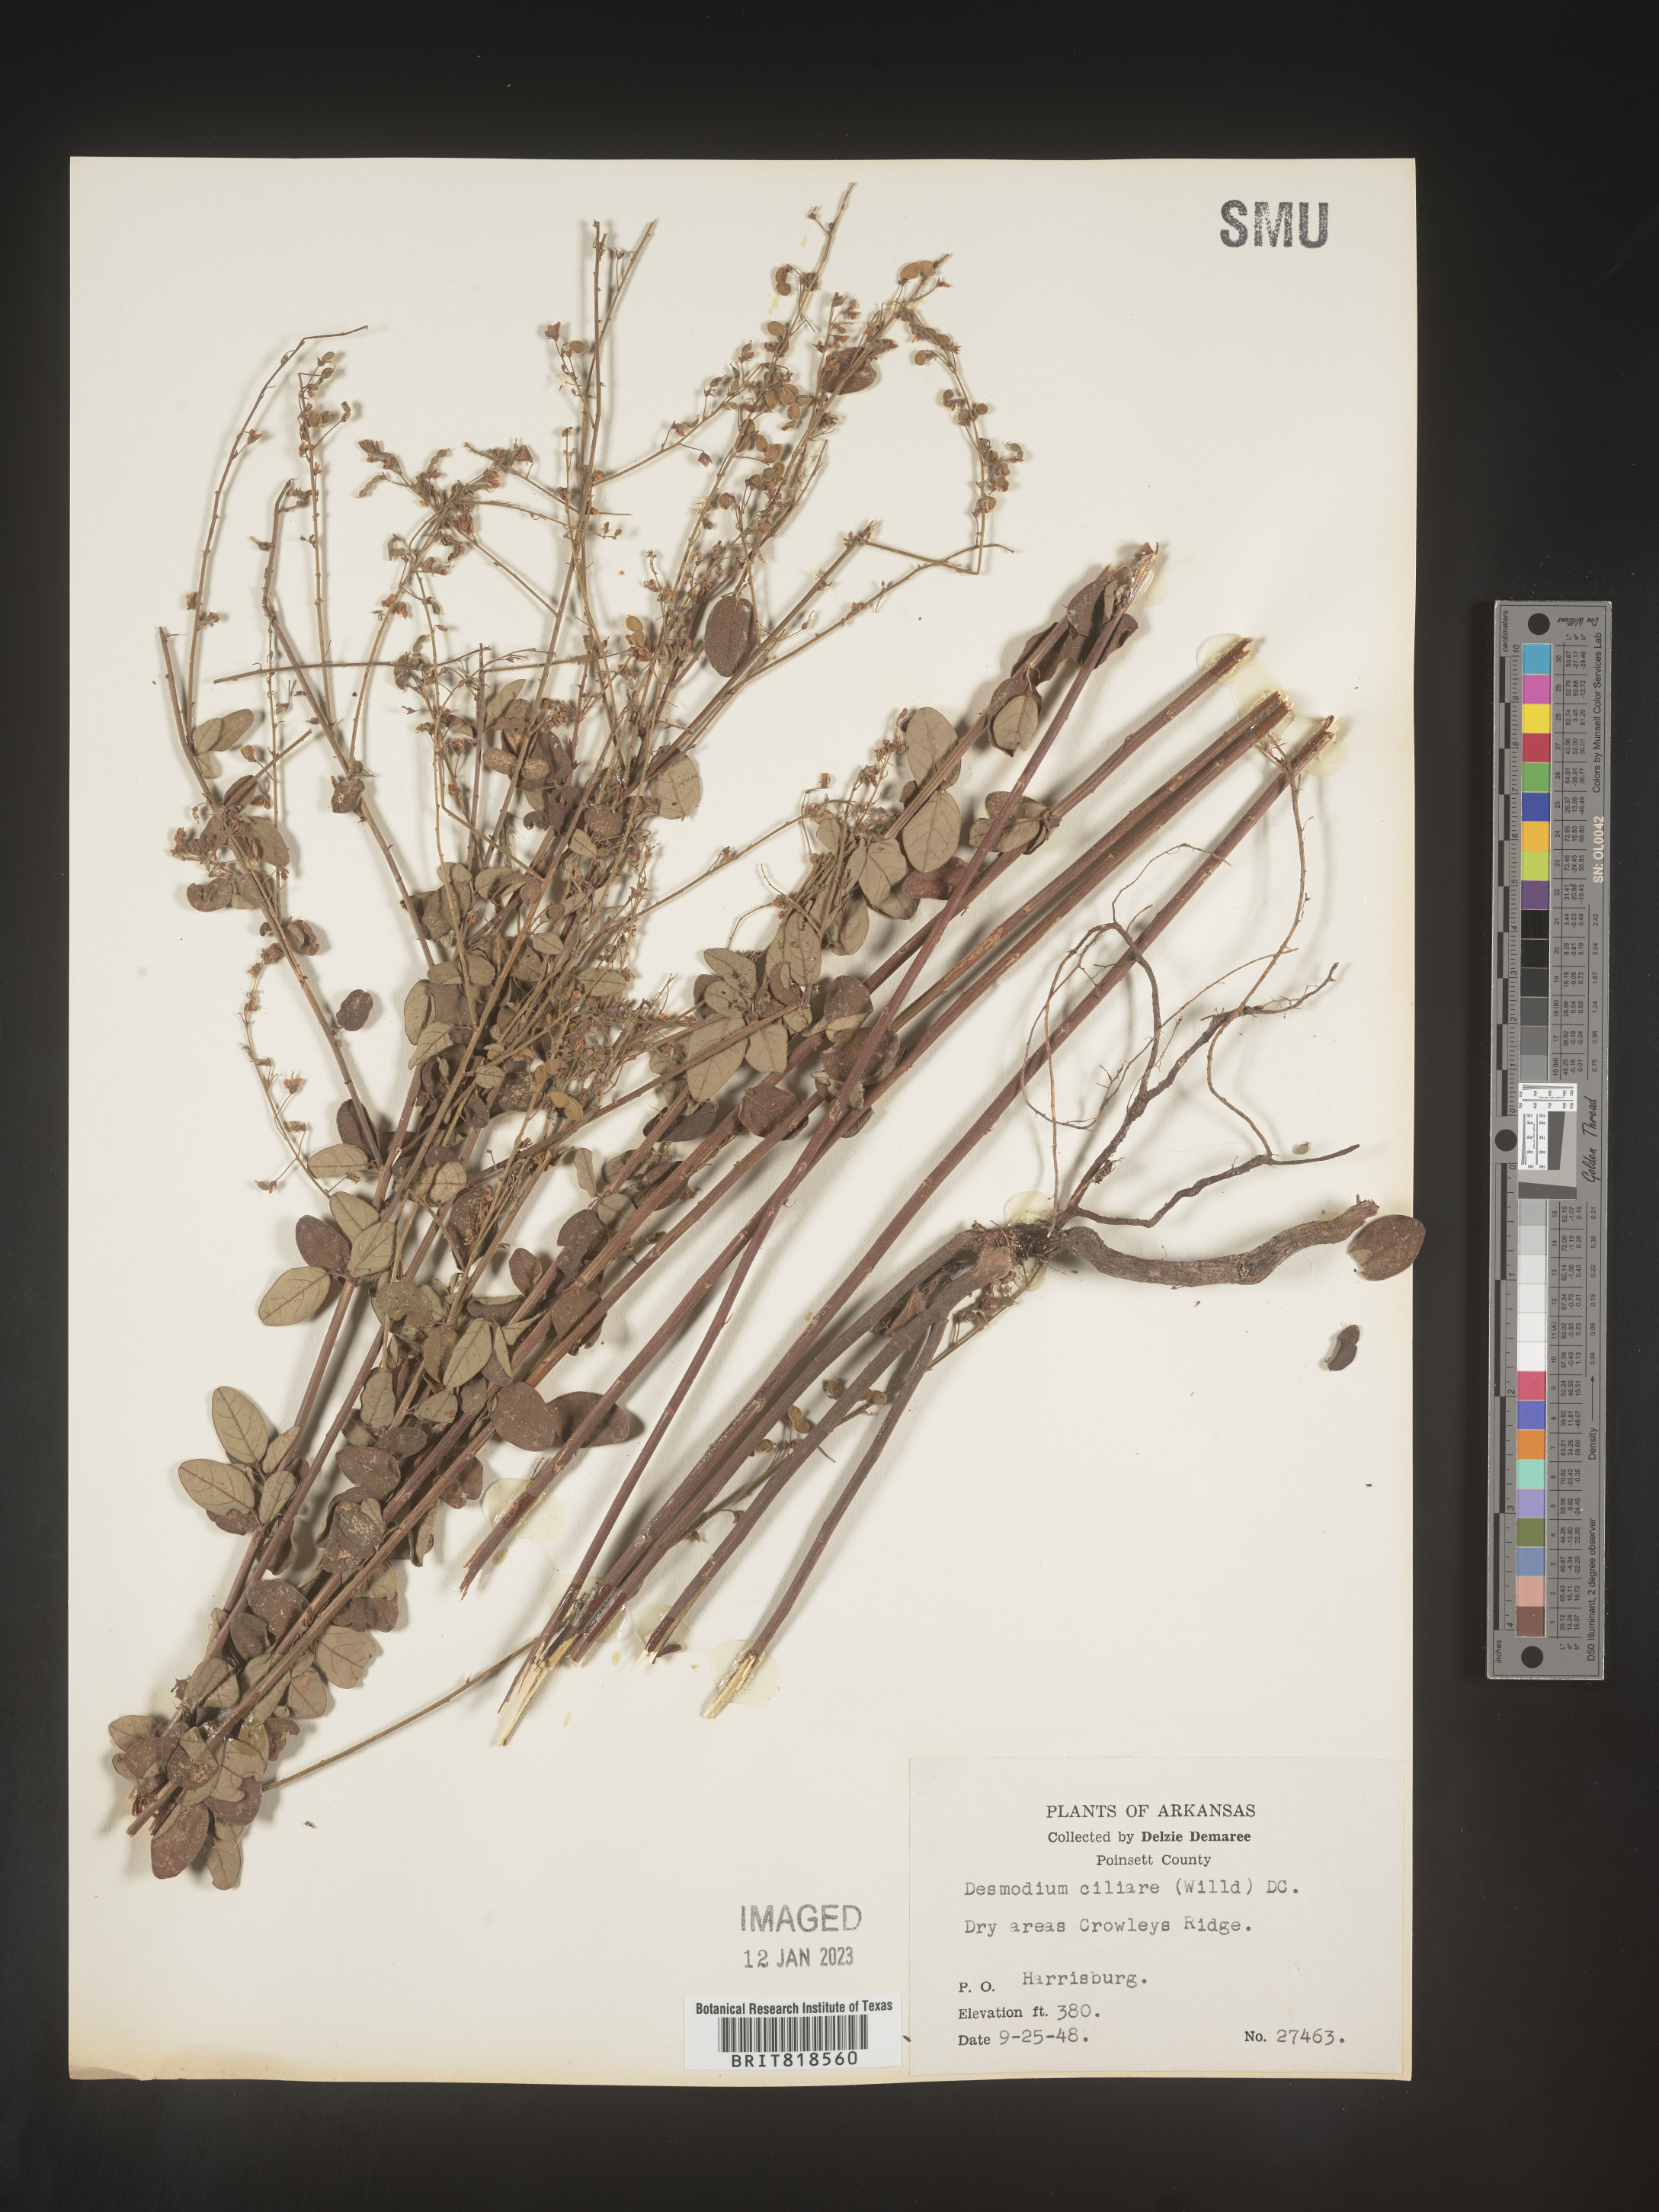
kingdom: Plantae
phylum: Tracheophyta
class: Magnoliopsida
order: Fabales
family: Fabaceae
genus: Desmodium
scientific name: Desmodium ciliare
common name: Hairy small-leaf ticktrefoil
